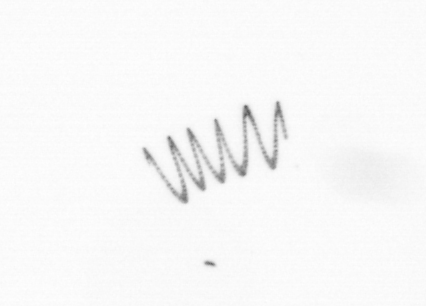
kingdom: Chromista
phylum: Ochrophyta
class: Bacillariophyceae
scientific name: Bacillariophyceae
